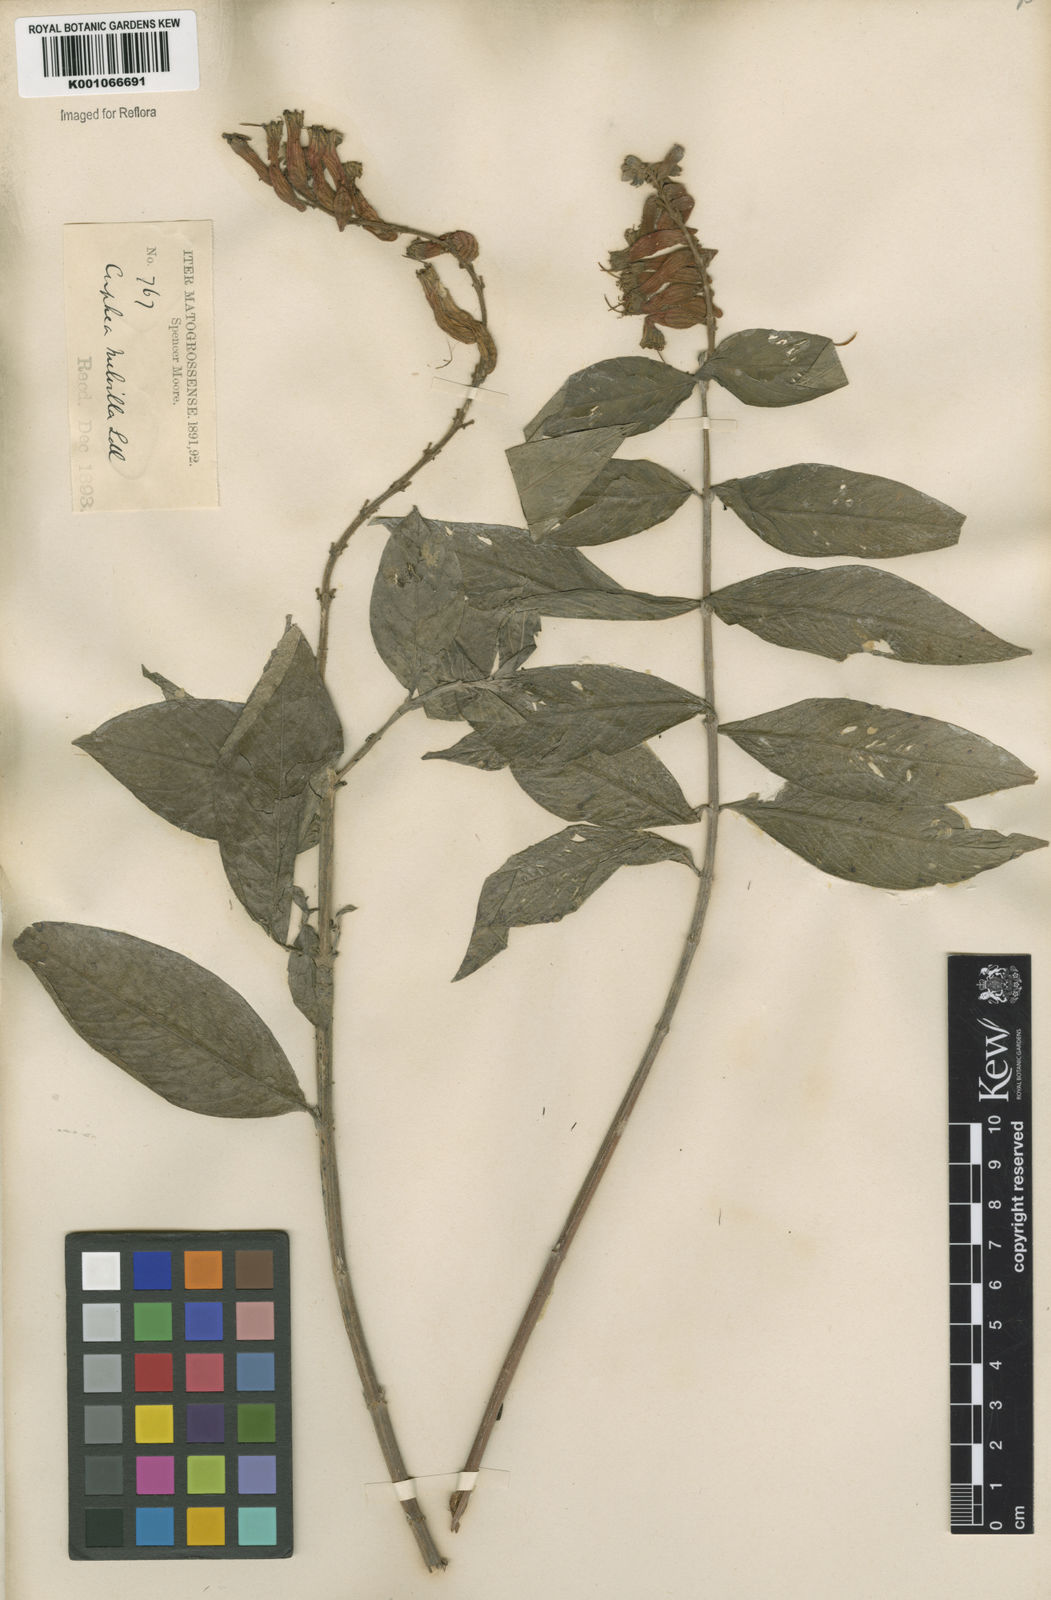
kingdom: Plantae
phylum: Tracheophyta
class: Magnoliopsida
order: Myrtales
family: Lythraceae
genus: Cuphea
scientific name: Cuphea melvilla
